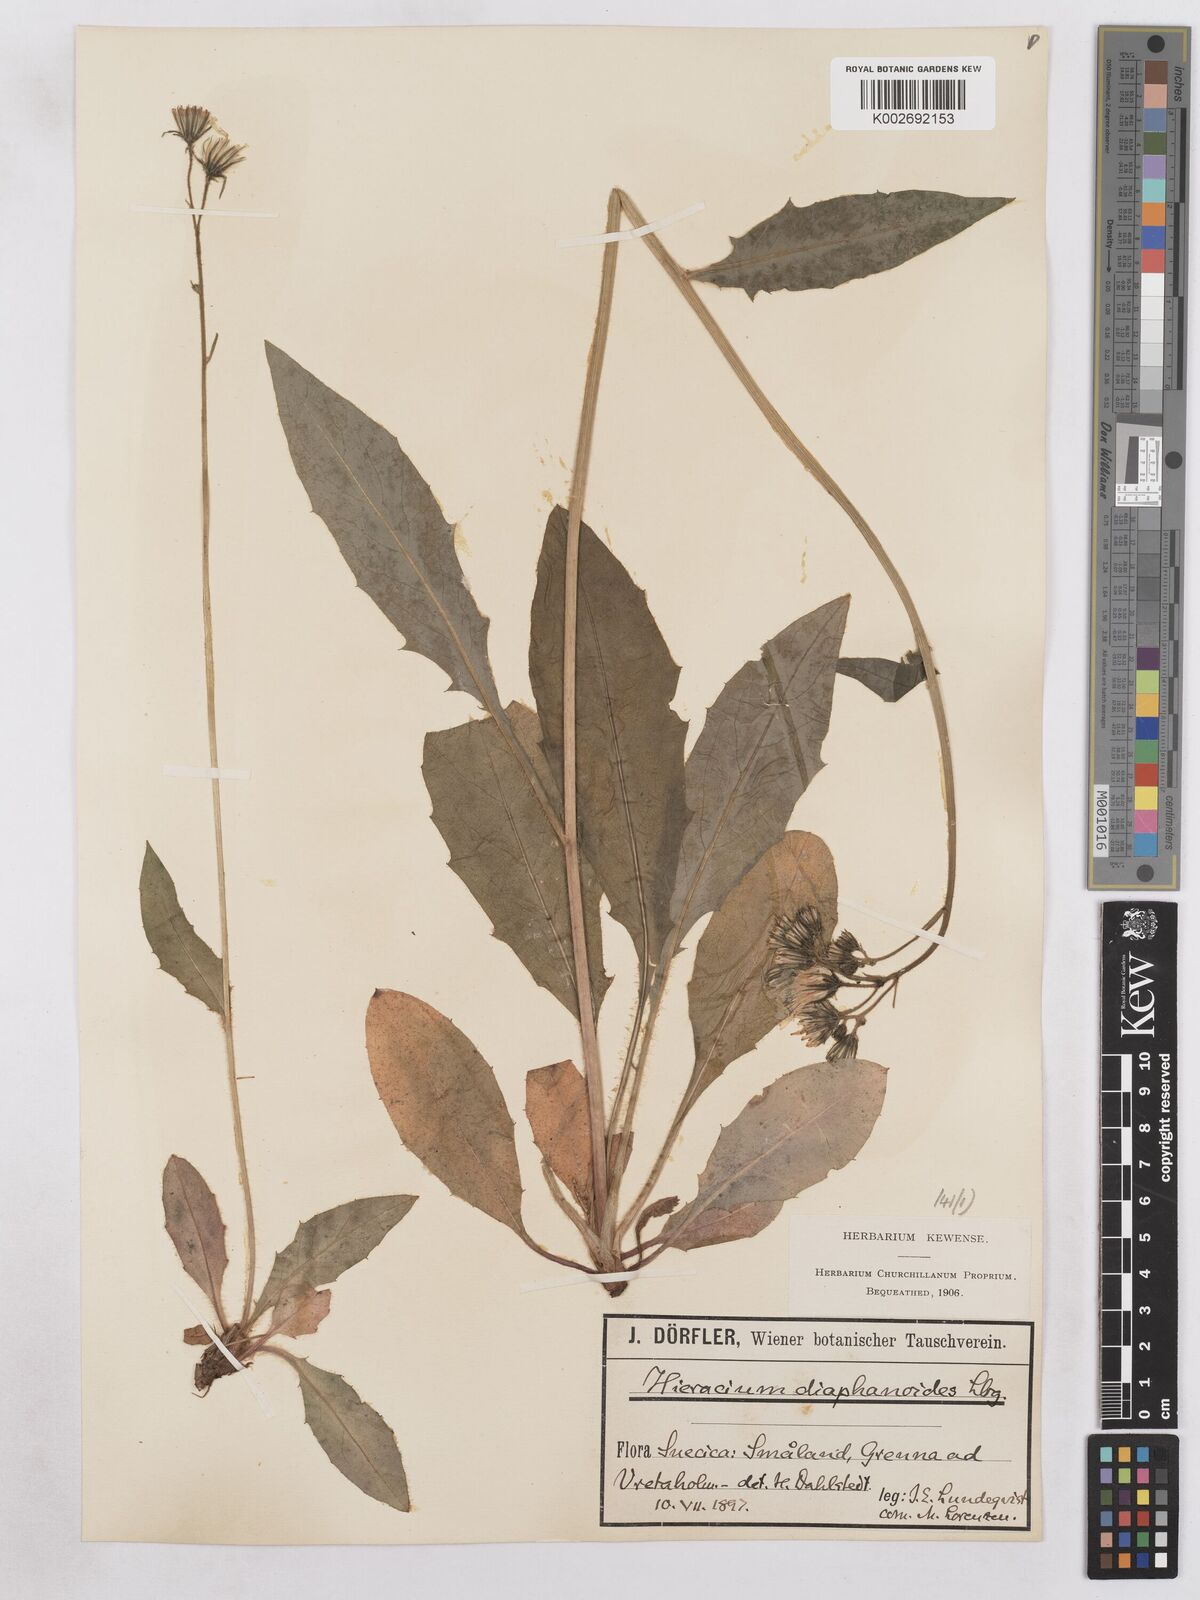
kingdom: Plantae
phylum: Tracheophyta
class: Magnoliopsida
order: Asterales
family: Asteraceae
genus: Hieracium
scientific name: Hieracium diaphanoides
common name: Fine-bracted hawkweed
